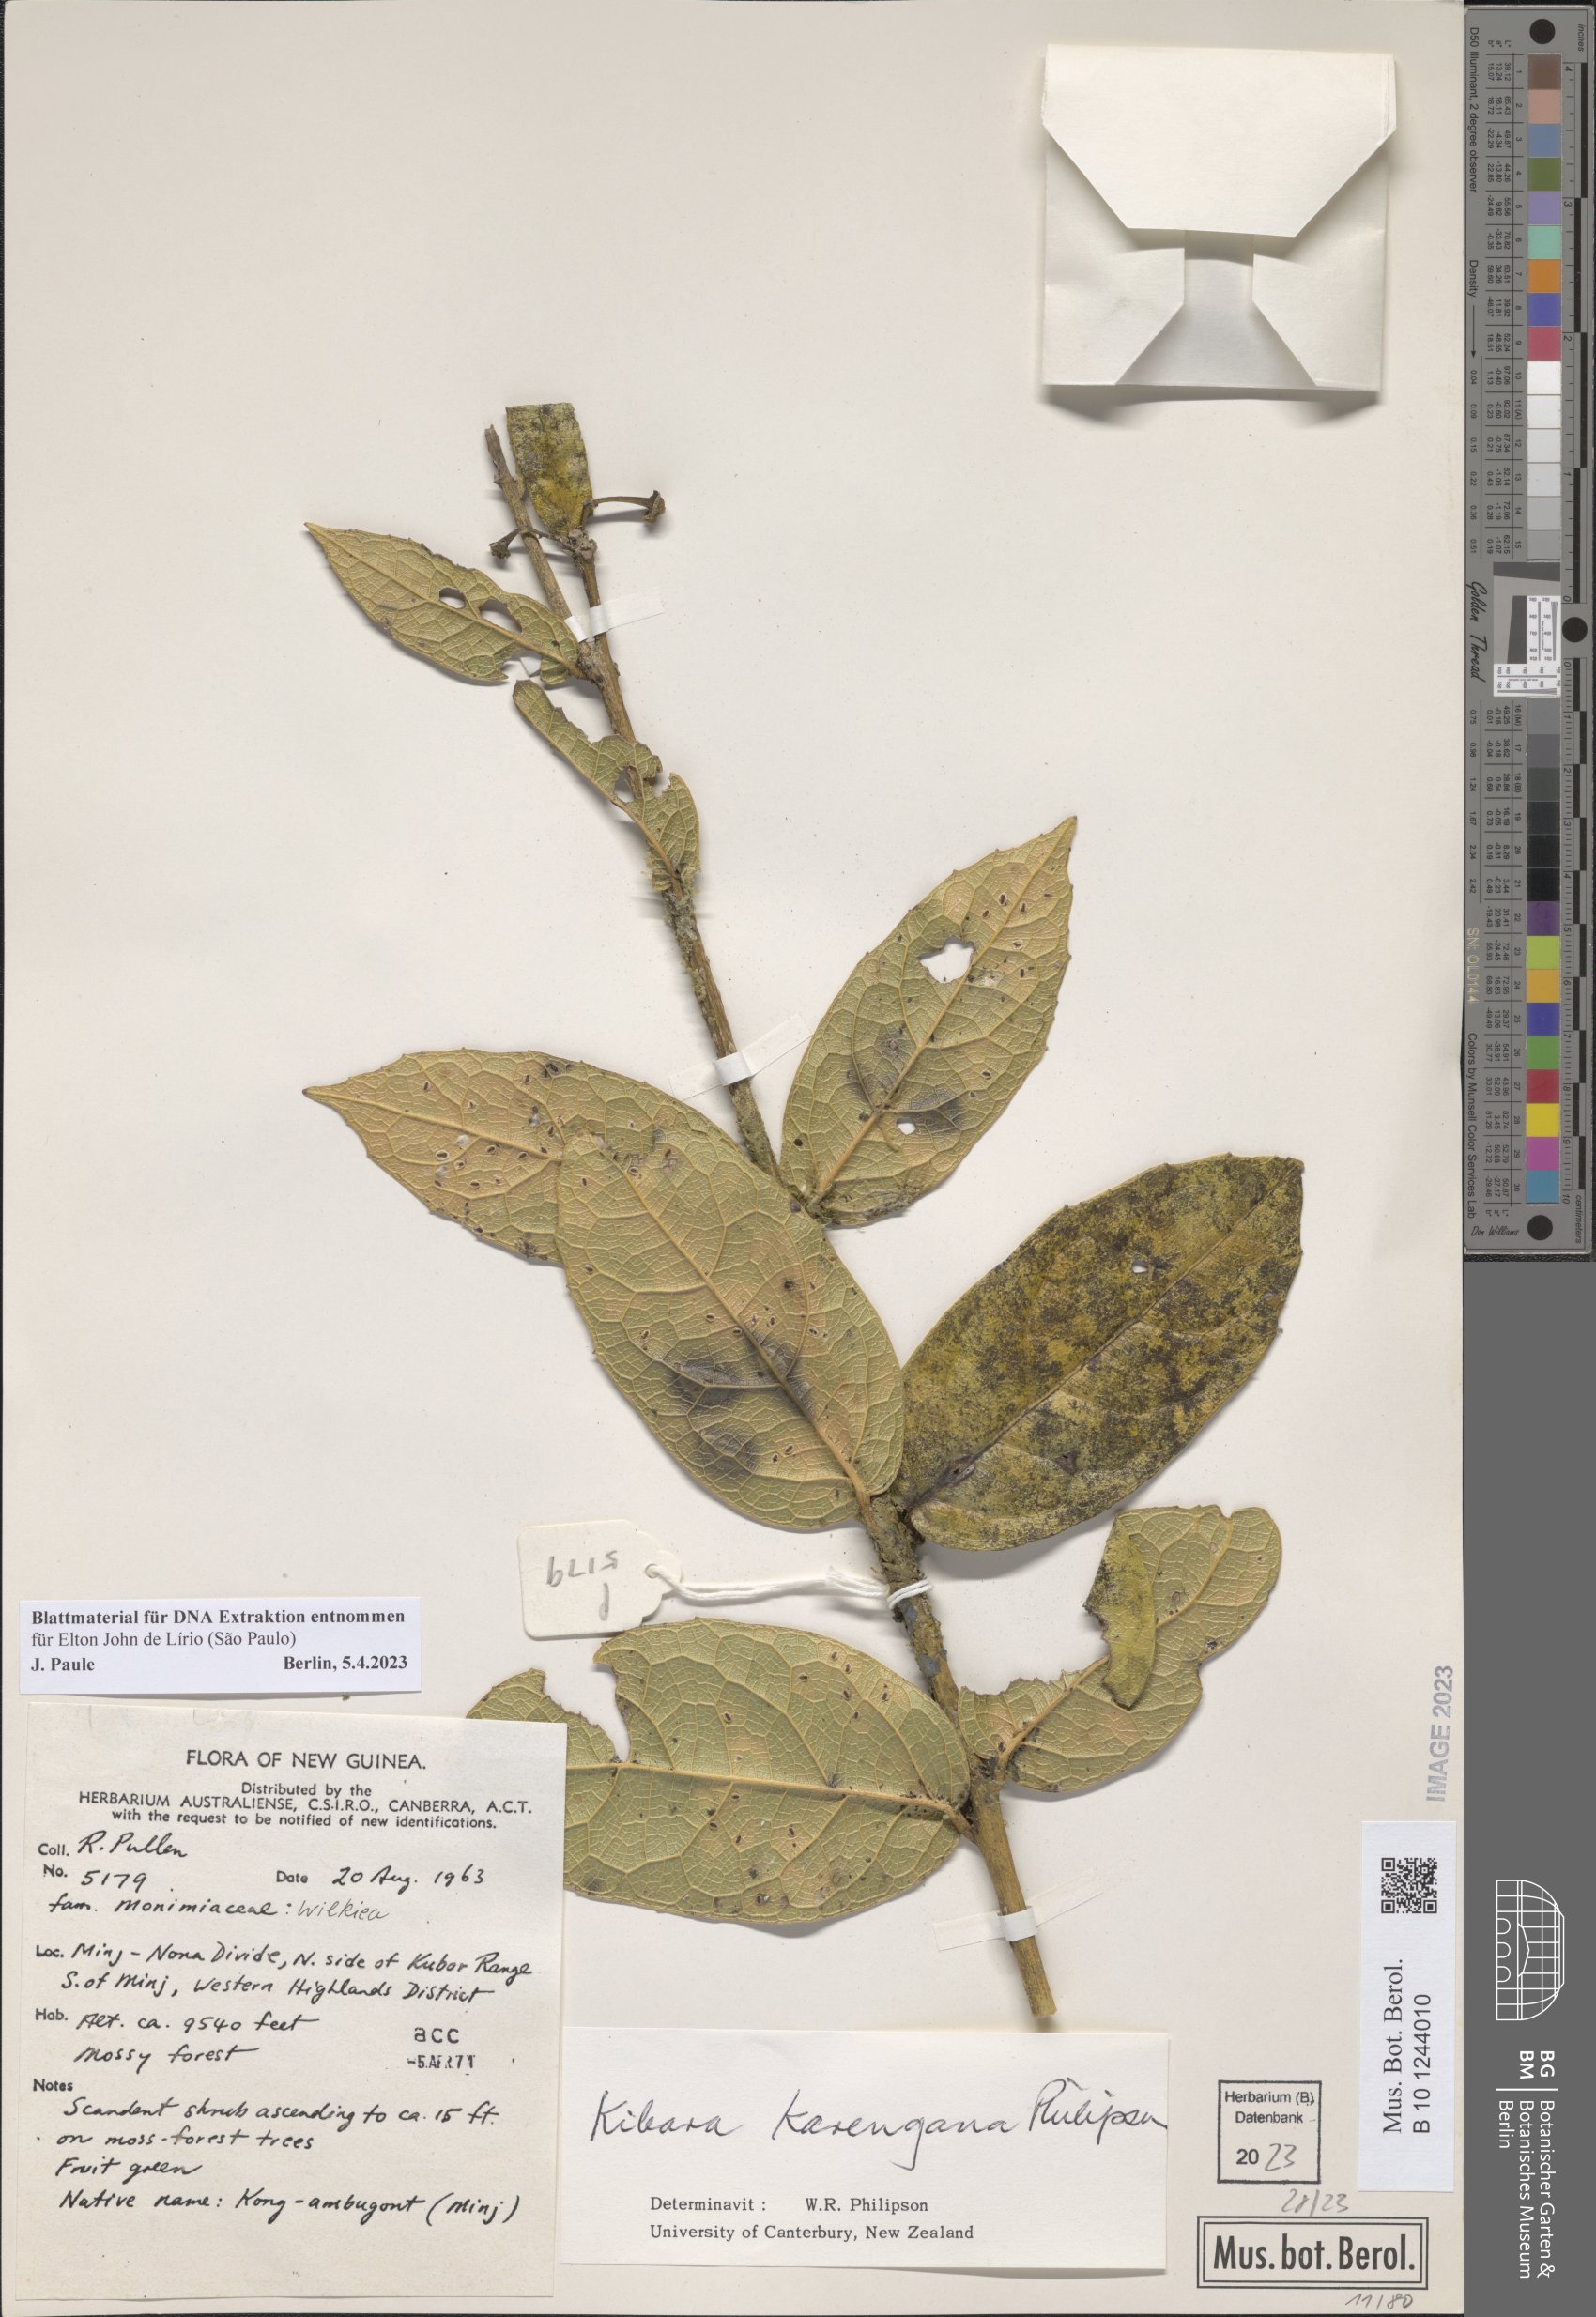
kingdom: Plantae
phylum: Tracheophyta
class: Magnoliopsida
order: Laurales
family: Monimiaceae
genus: Kibara
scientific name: Kibara karengana
